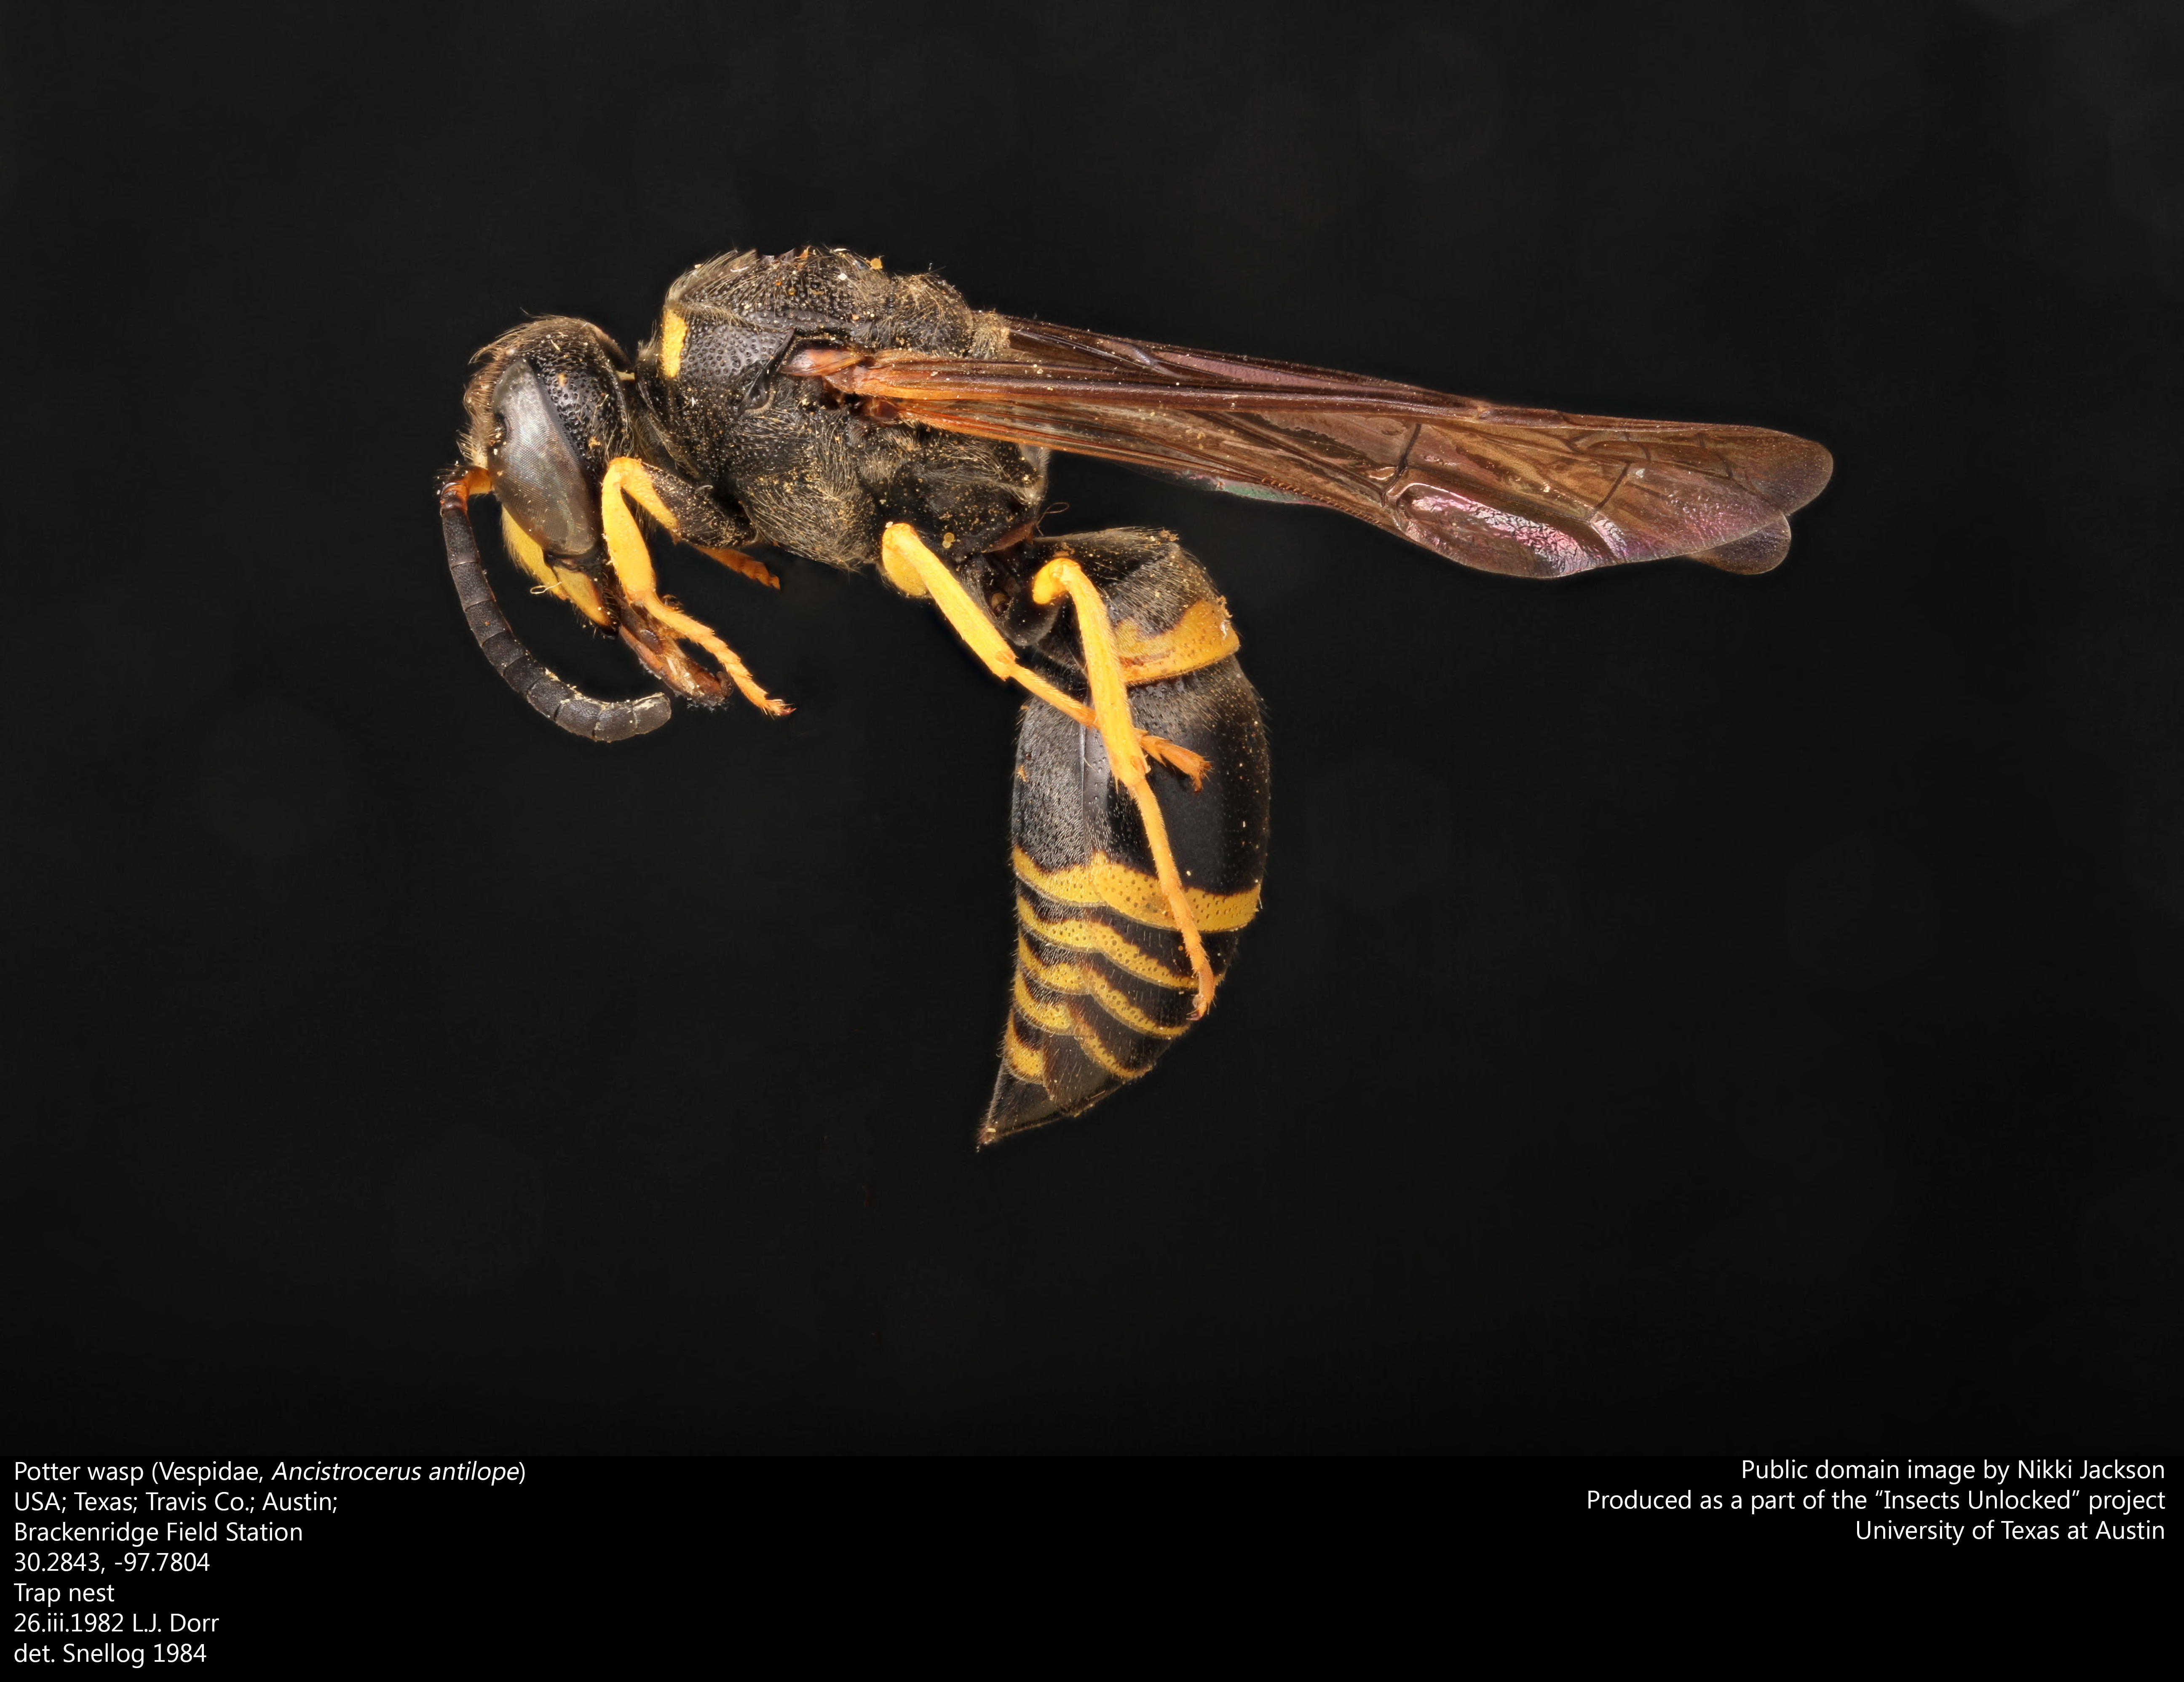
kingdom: Animalia
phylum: Arthropoda
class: Insecta
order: Hymenoptera
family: Vespidae
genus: Ancistrocerus
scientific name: Ancistrocerus antilope
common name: Lobed mason wasp
